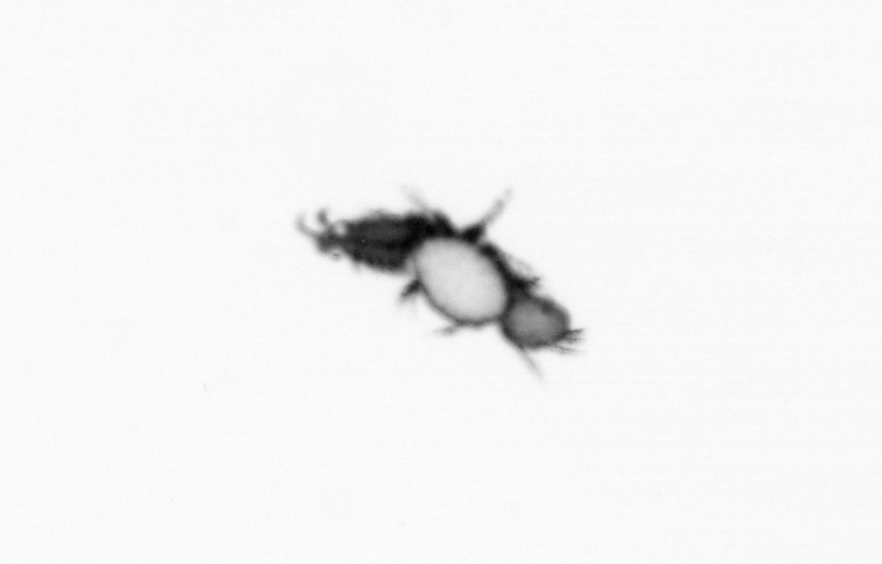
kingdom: Animalia
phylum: Annelida
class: Polychaeta
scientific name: Polychaeta
